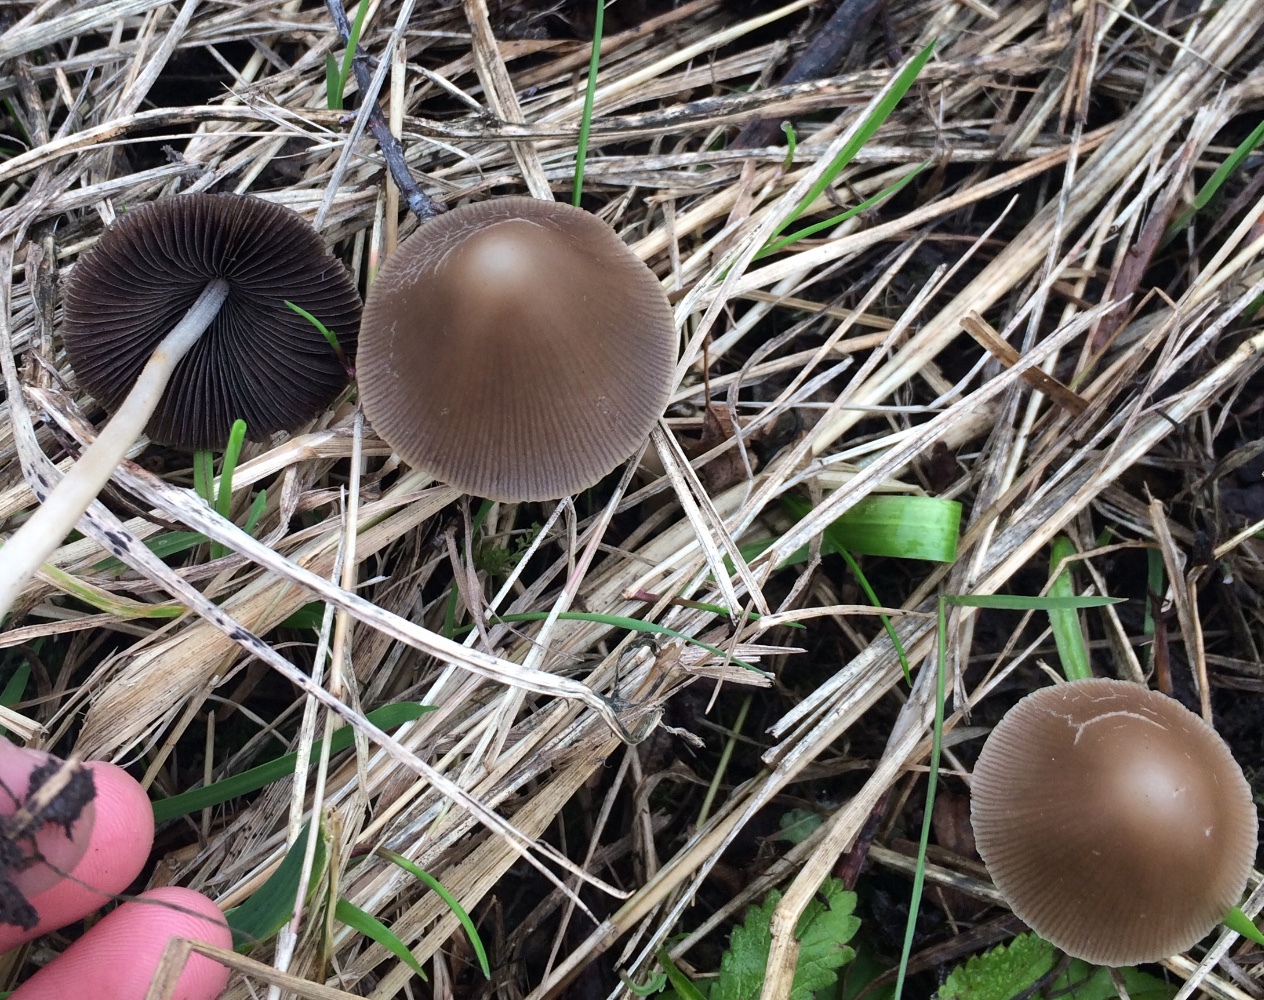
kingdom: Fungi
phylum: Basidiomycota
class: Agaricomycetes
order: Agaricales
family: Psathyrellaceae
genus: Parasola
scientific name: Parasola conopilea
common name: kegle-hjulhat
